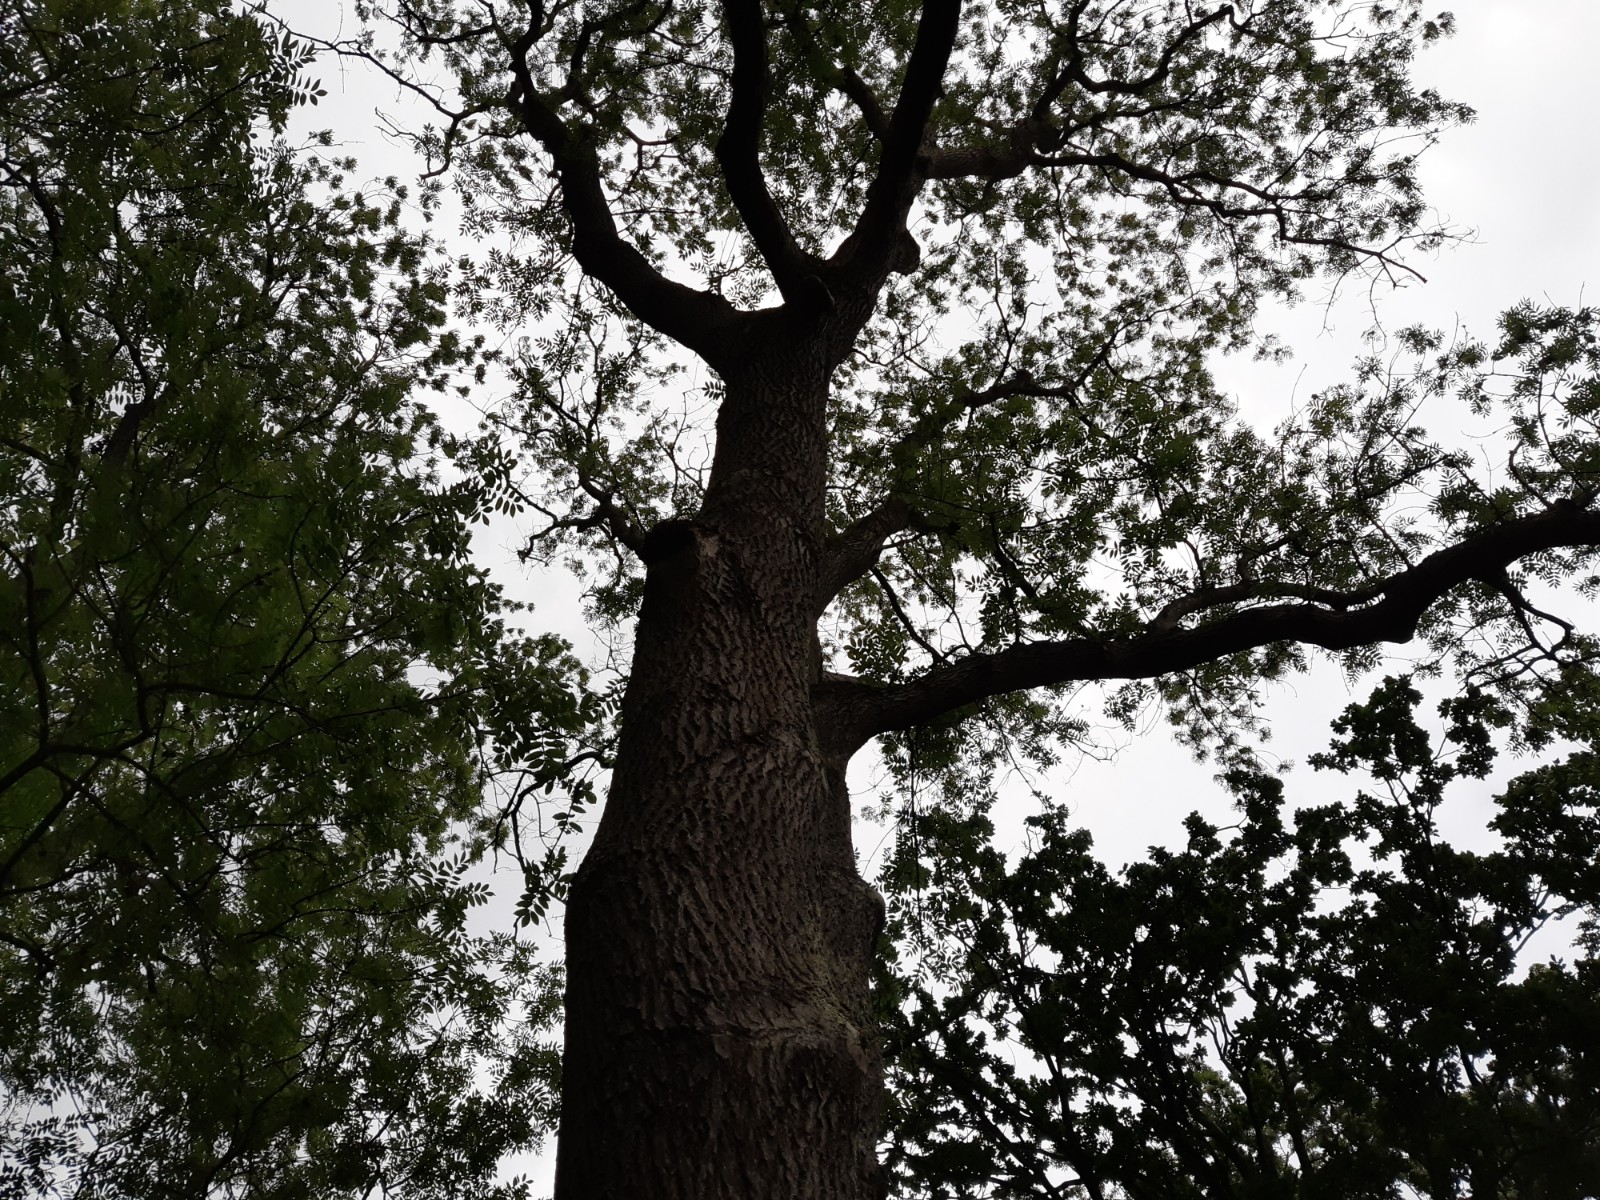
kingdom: Fungi
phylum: Ascomycota
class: Arthoniomycetes
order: Arthoniales
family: Chrysotrichaceae
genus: Chrysothrix
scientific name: Chrysothrix candelaris
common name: gul støvlav
